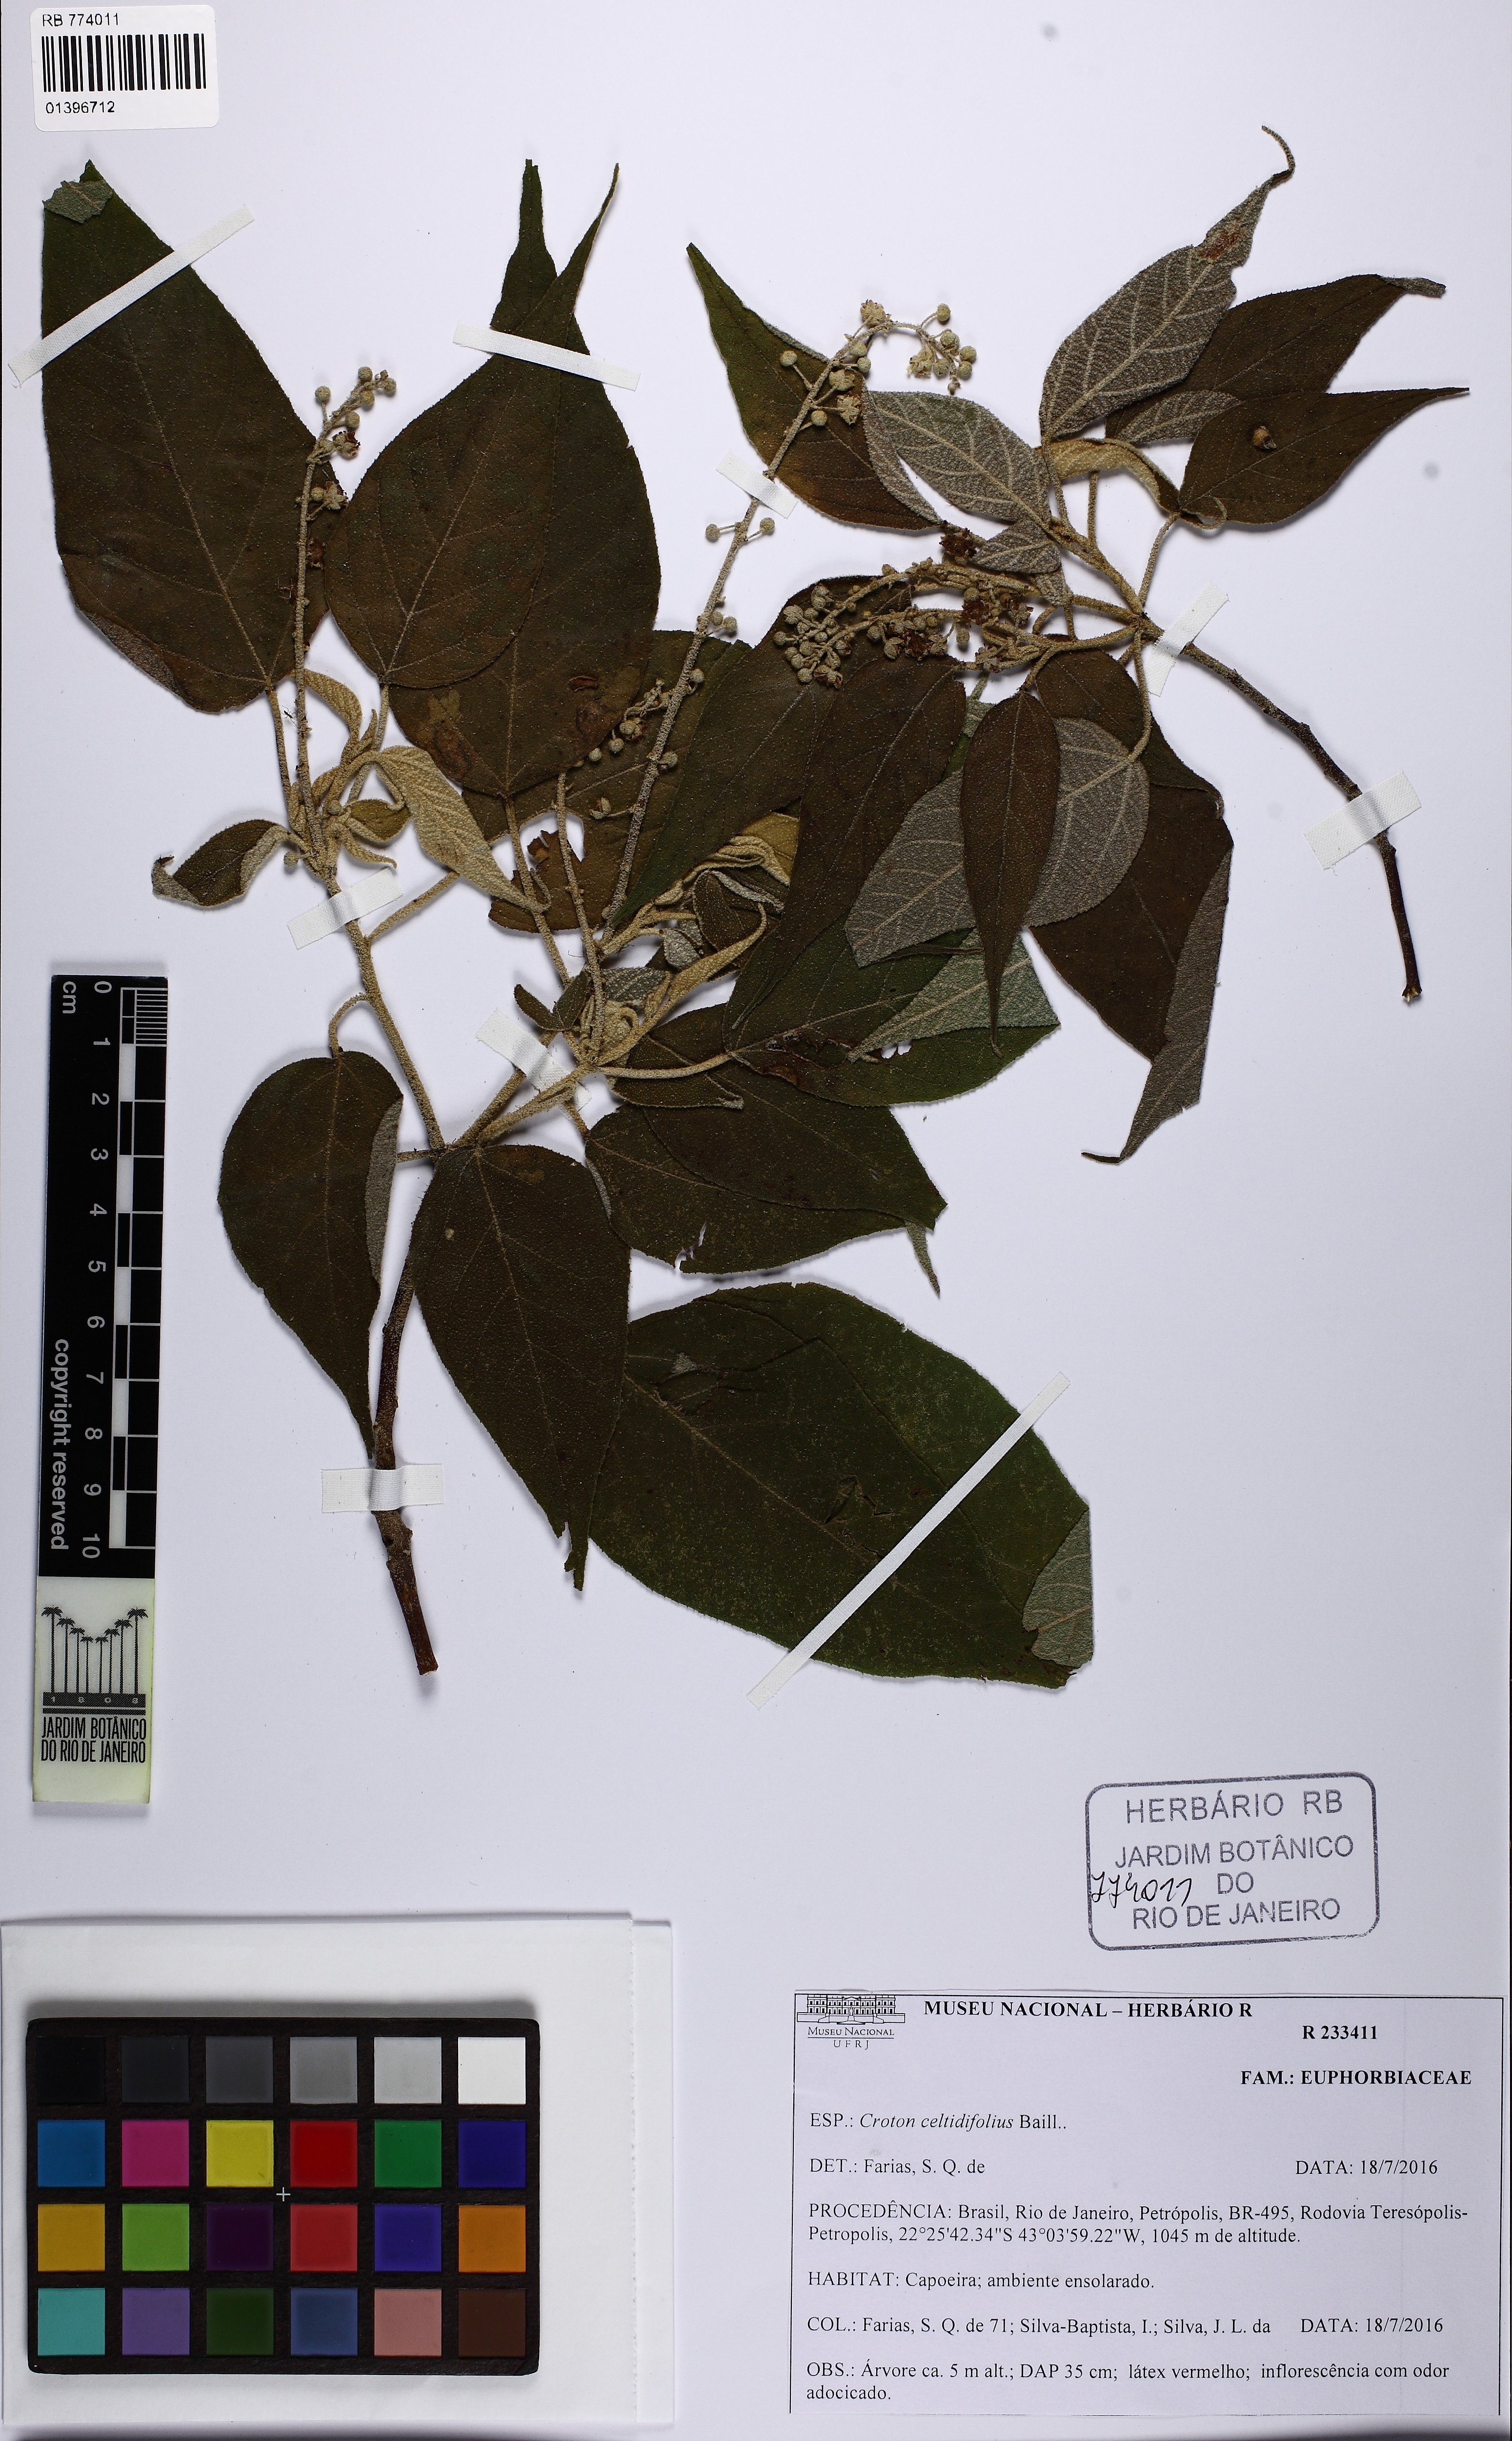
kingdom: Plantae
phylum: Tracheophyta
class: Magnoliopsida
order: Malpighiales
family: Euphorbiaceae
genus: Croton
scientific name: Croton celtidifolius
